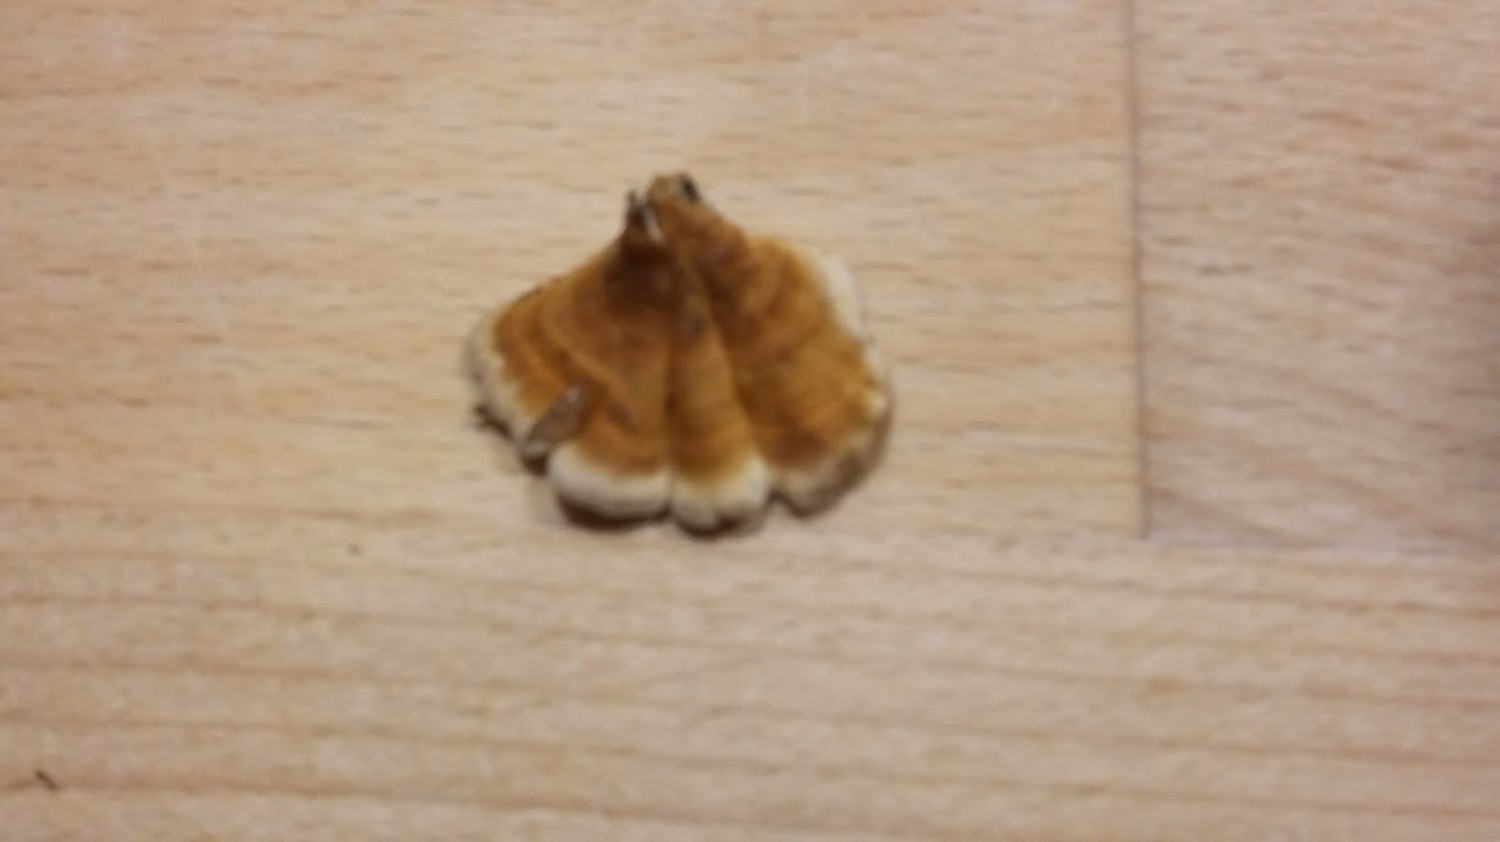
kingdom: Fungi
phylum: Basidiomycota
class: Agaricomycetes
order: Amylocorticiales
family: Amylocorticiaceae
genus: Plicaturopsis
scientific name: Plicaturopsis crispa
